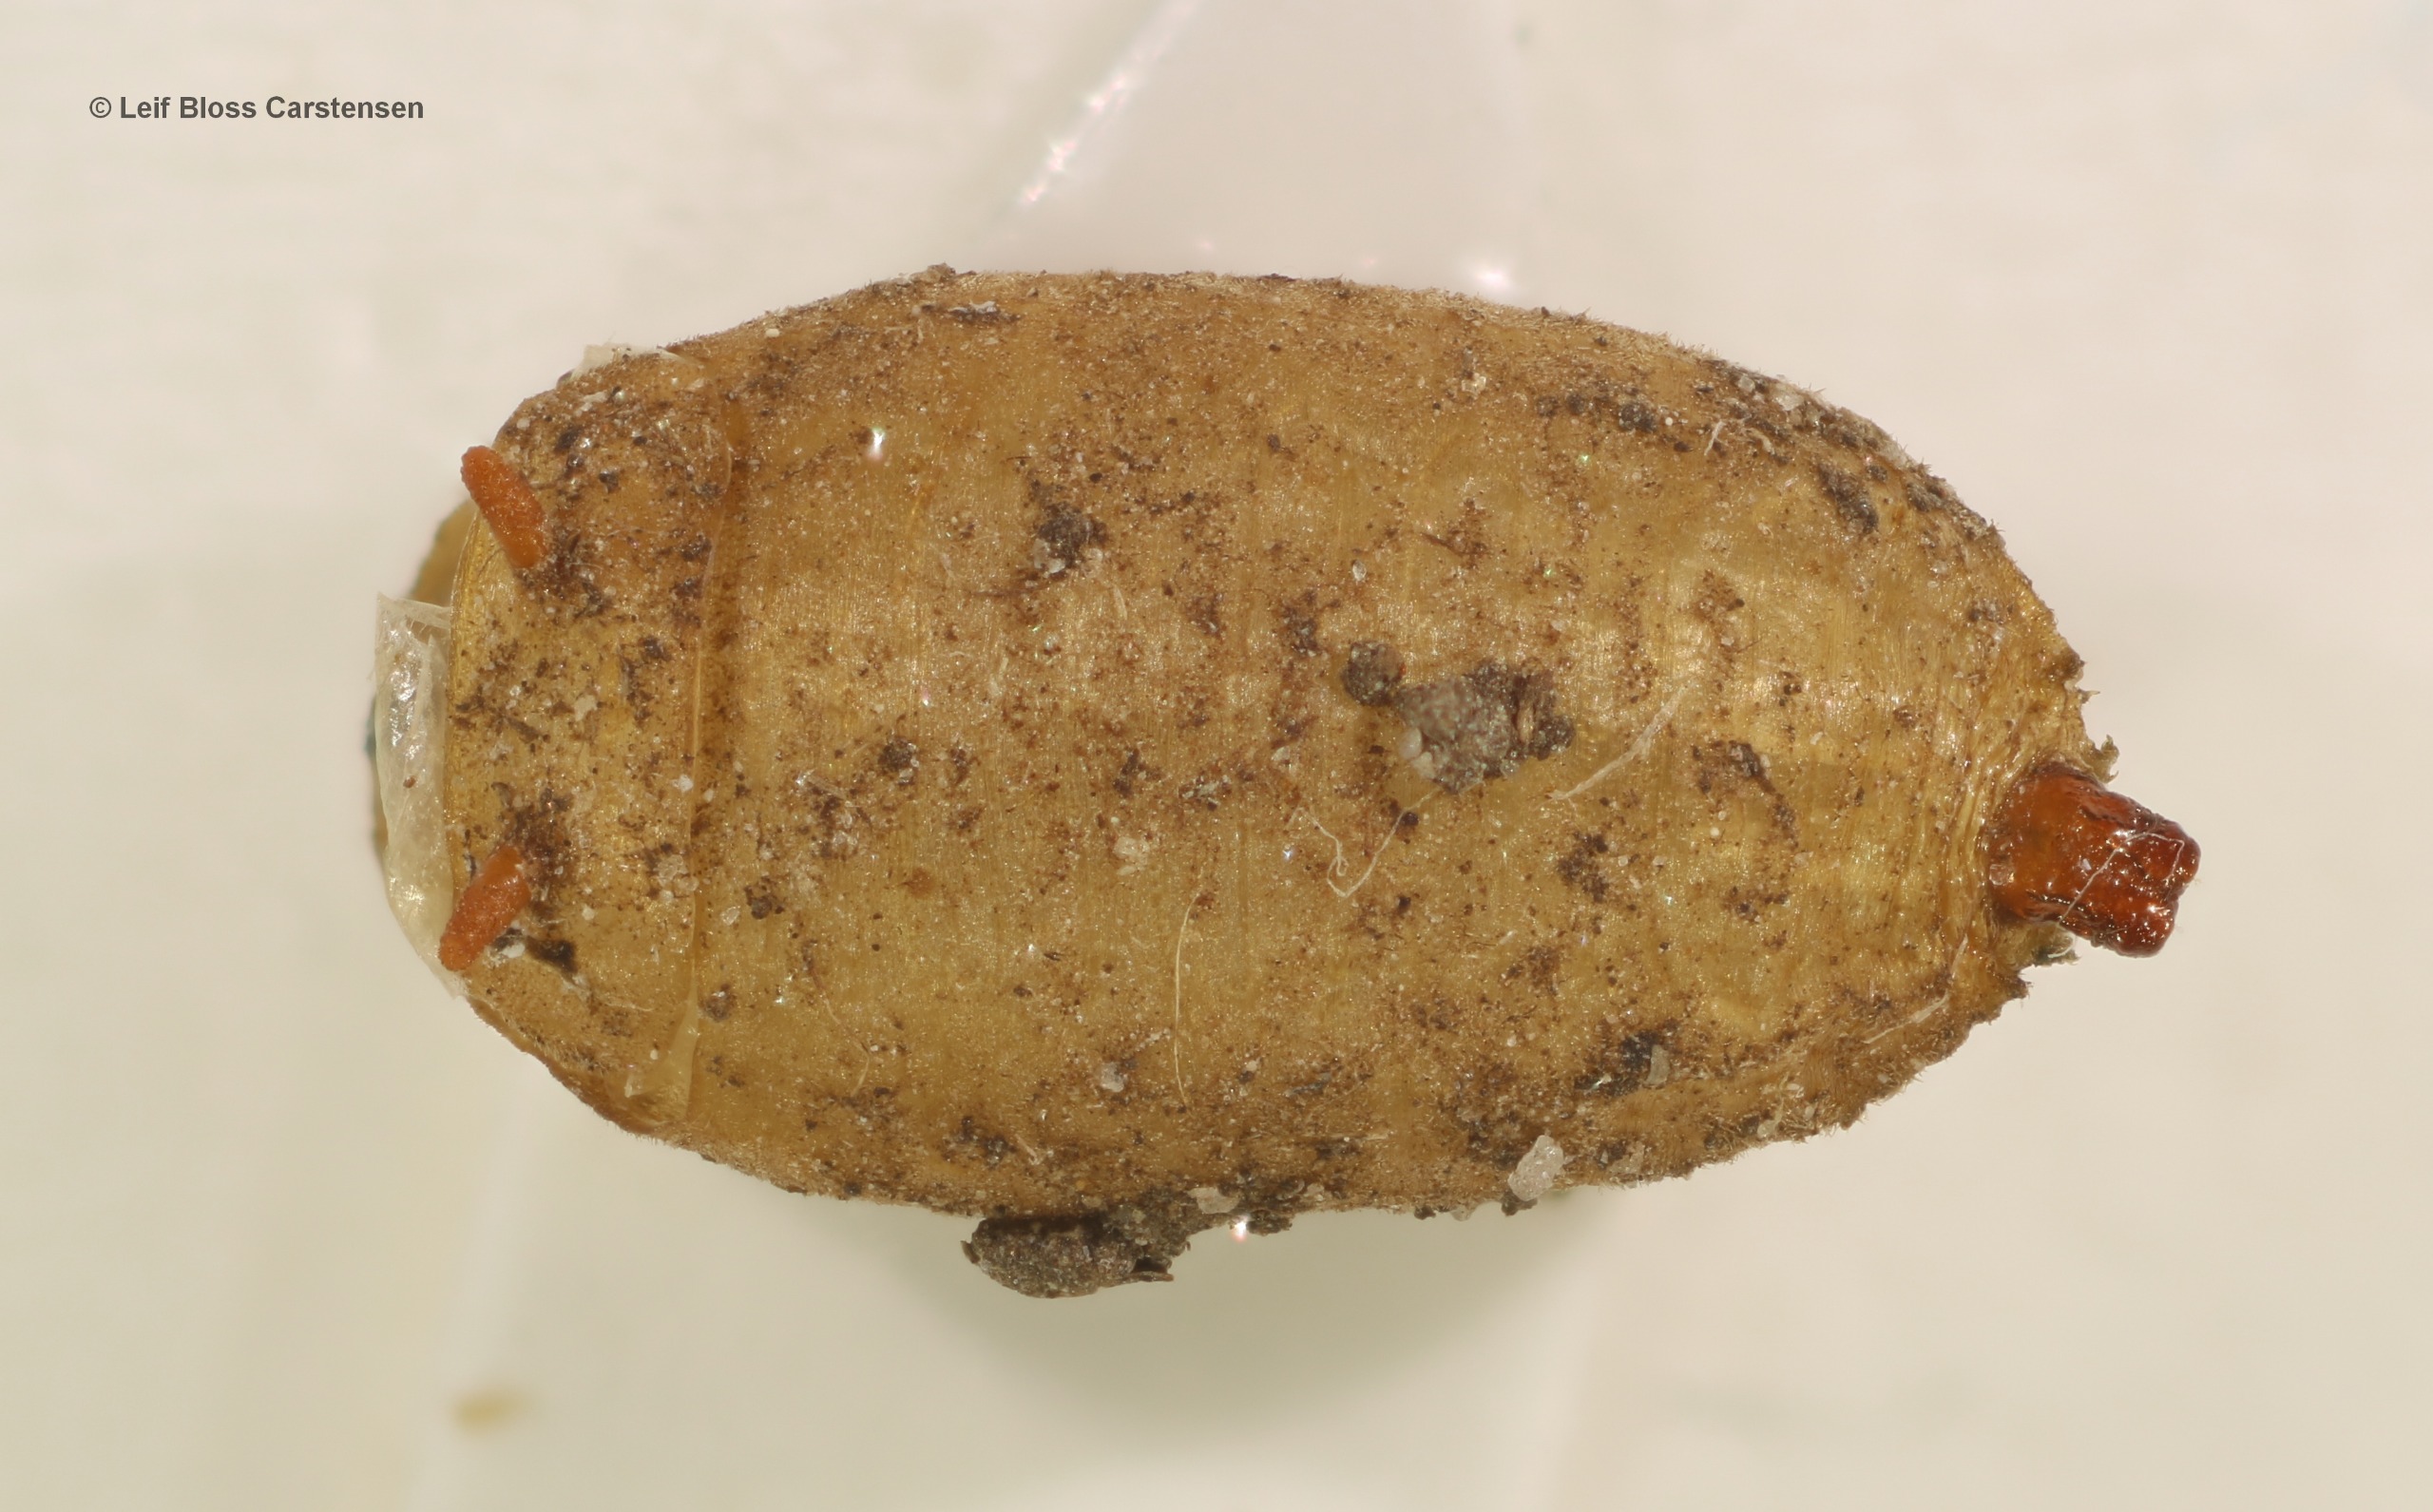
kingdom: Animalia
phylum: Arthropoda
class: Insecta
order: Diptera
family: Syrphidae
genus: Cheilosia
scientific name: Cheilosia fraterna
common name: Kabbeleje-urtesvirreflue
